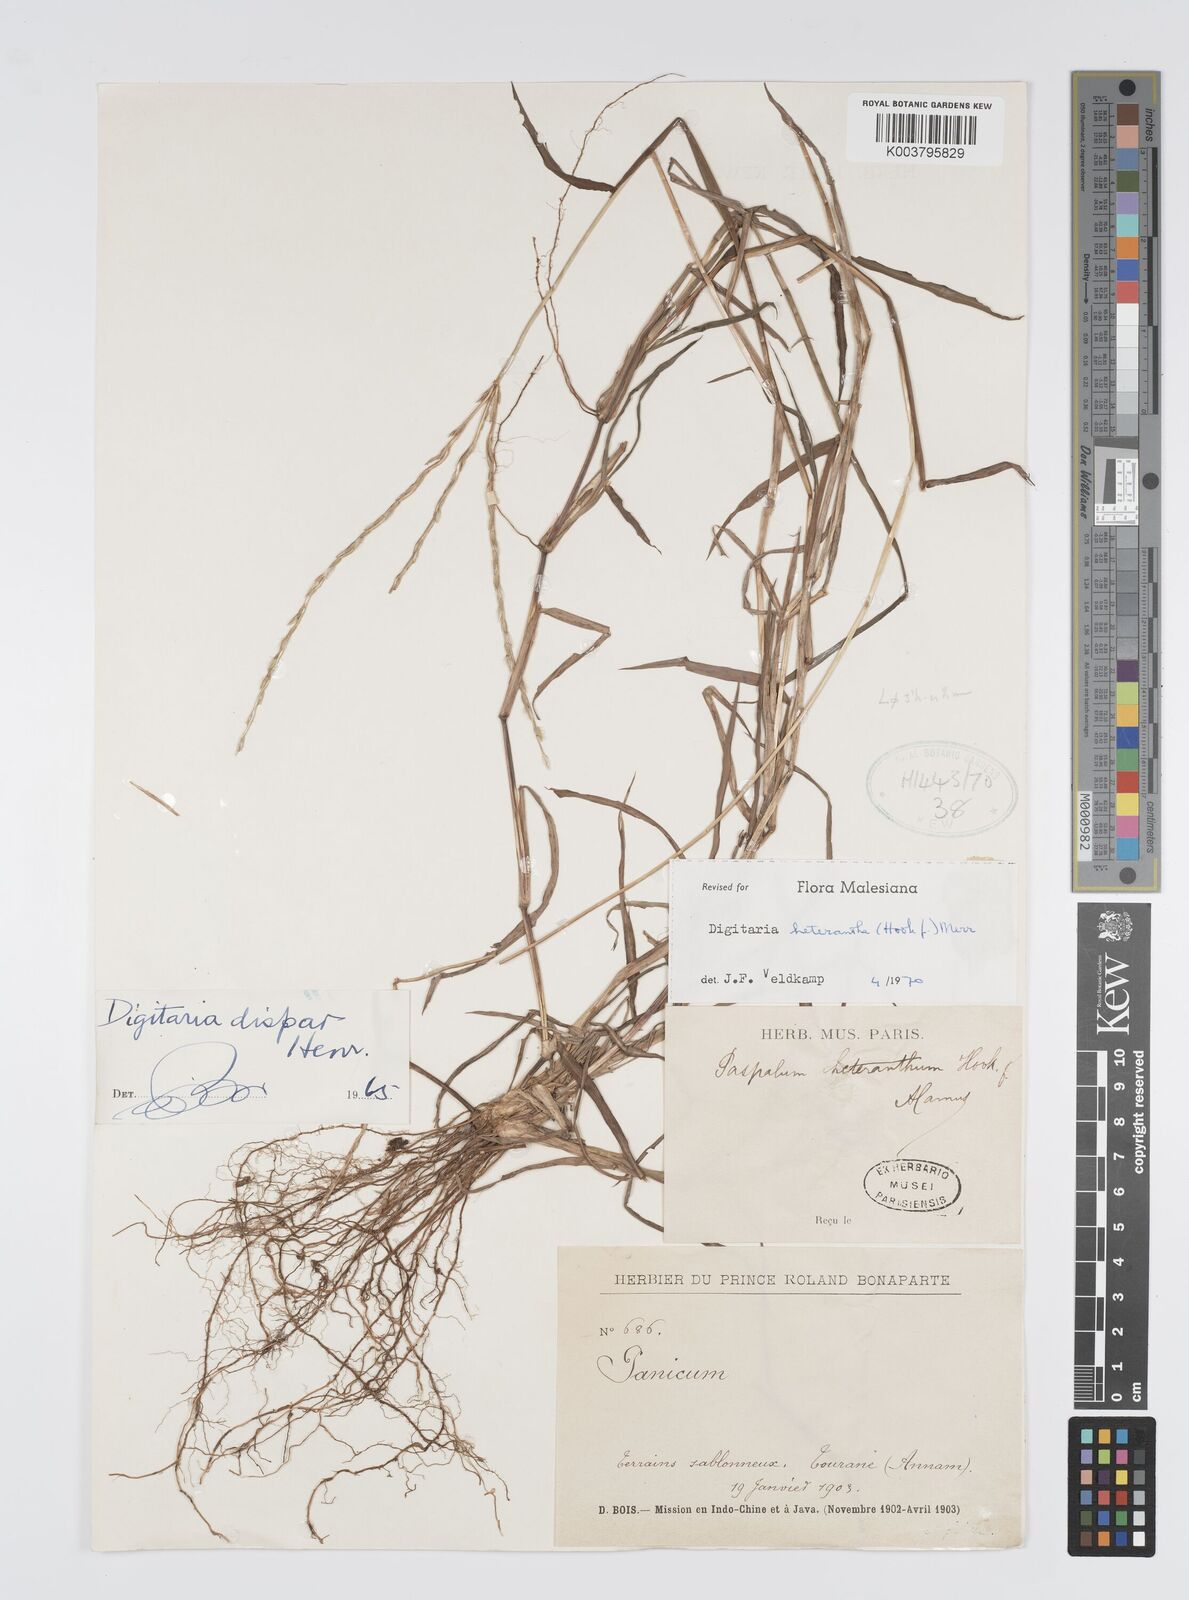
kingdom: Plantae
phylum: Tracheophyta
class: Liliopsida
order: Poales
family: Poaceae
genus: Digitaria
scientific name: Digitaria heterantha
